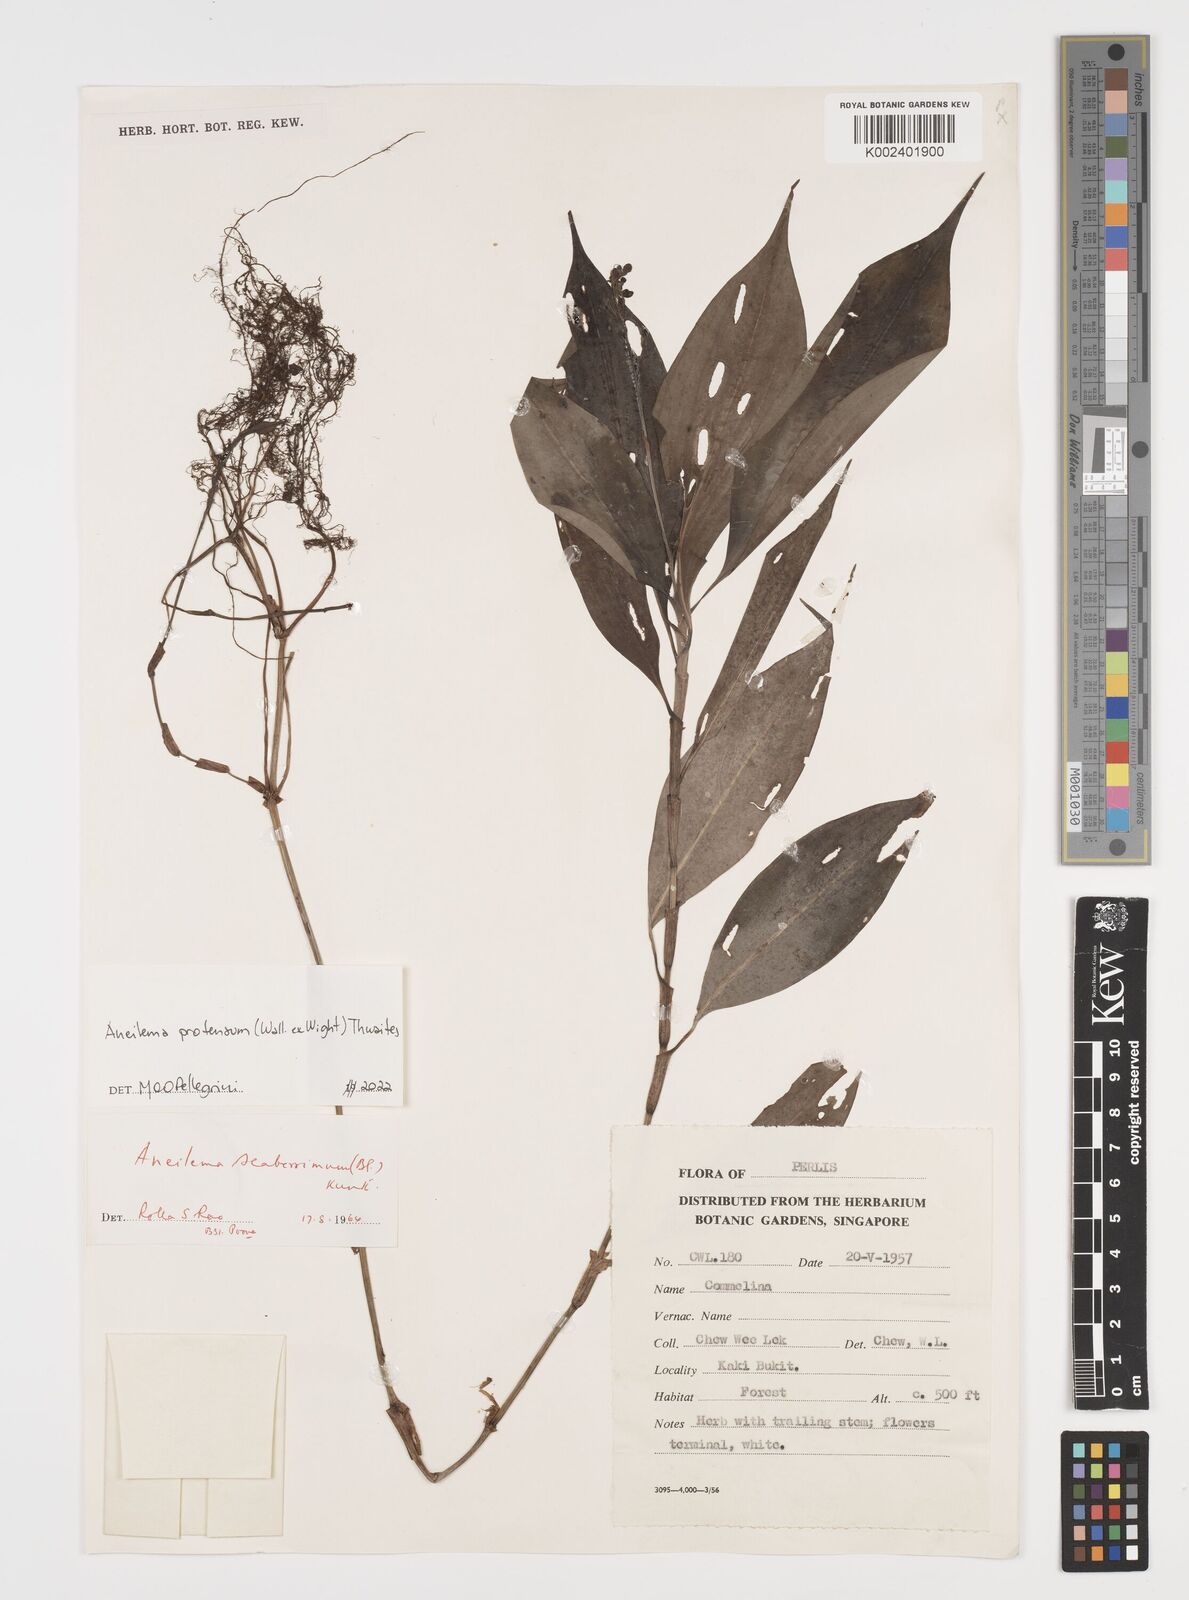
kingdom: Plantae
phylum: Tracheophyta
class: Liliopsida
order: Commelinales
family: Commelinaceae
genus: Rhopalephora
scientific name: Rhopalephora
